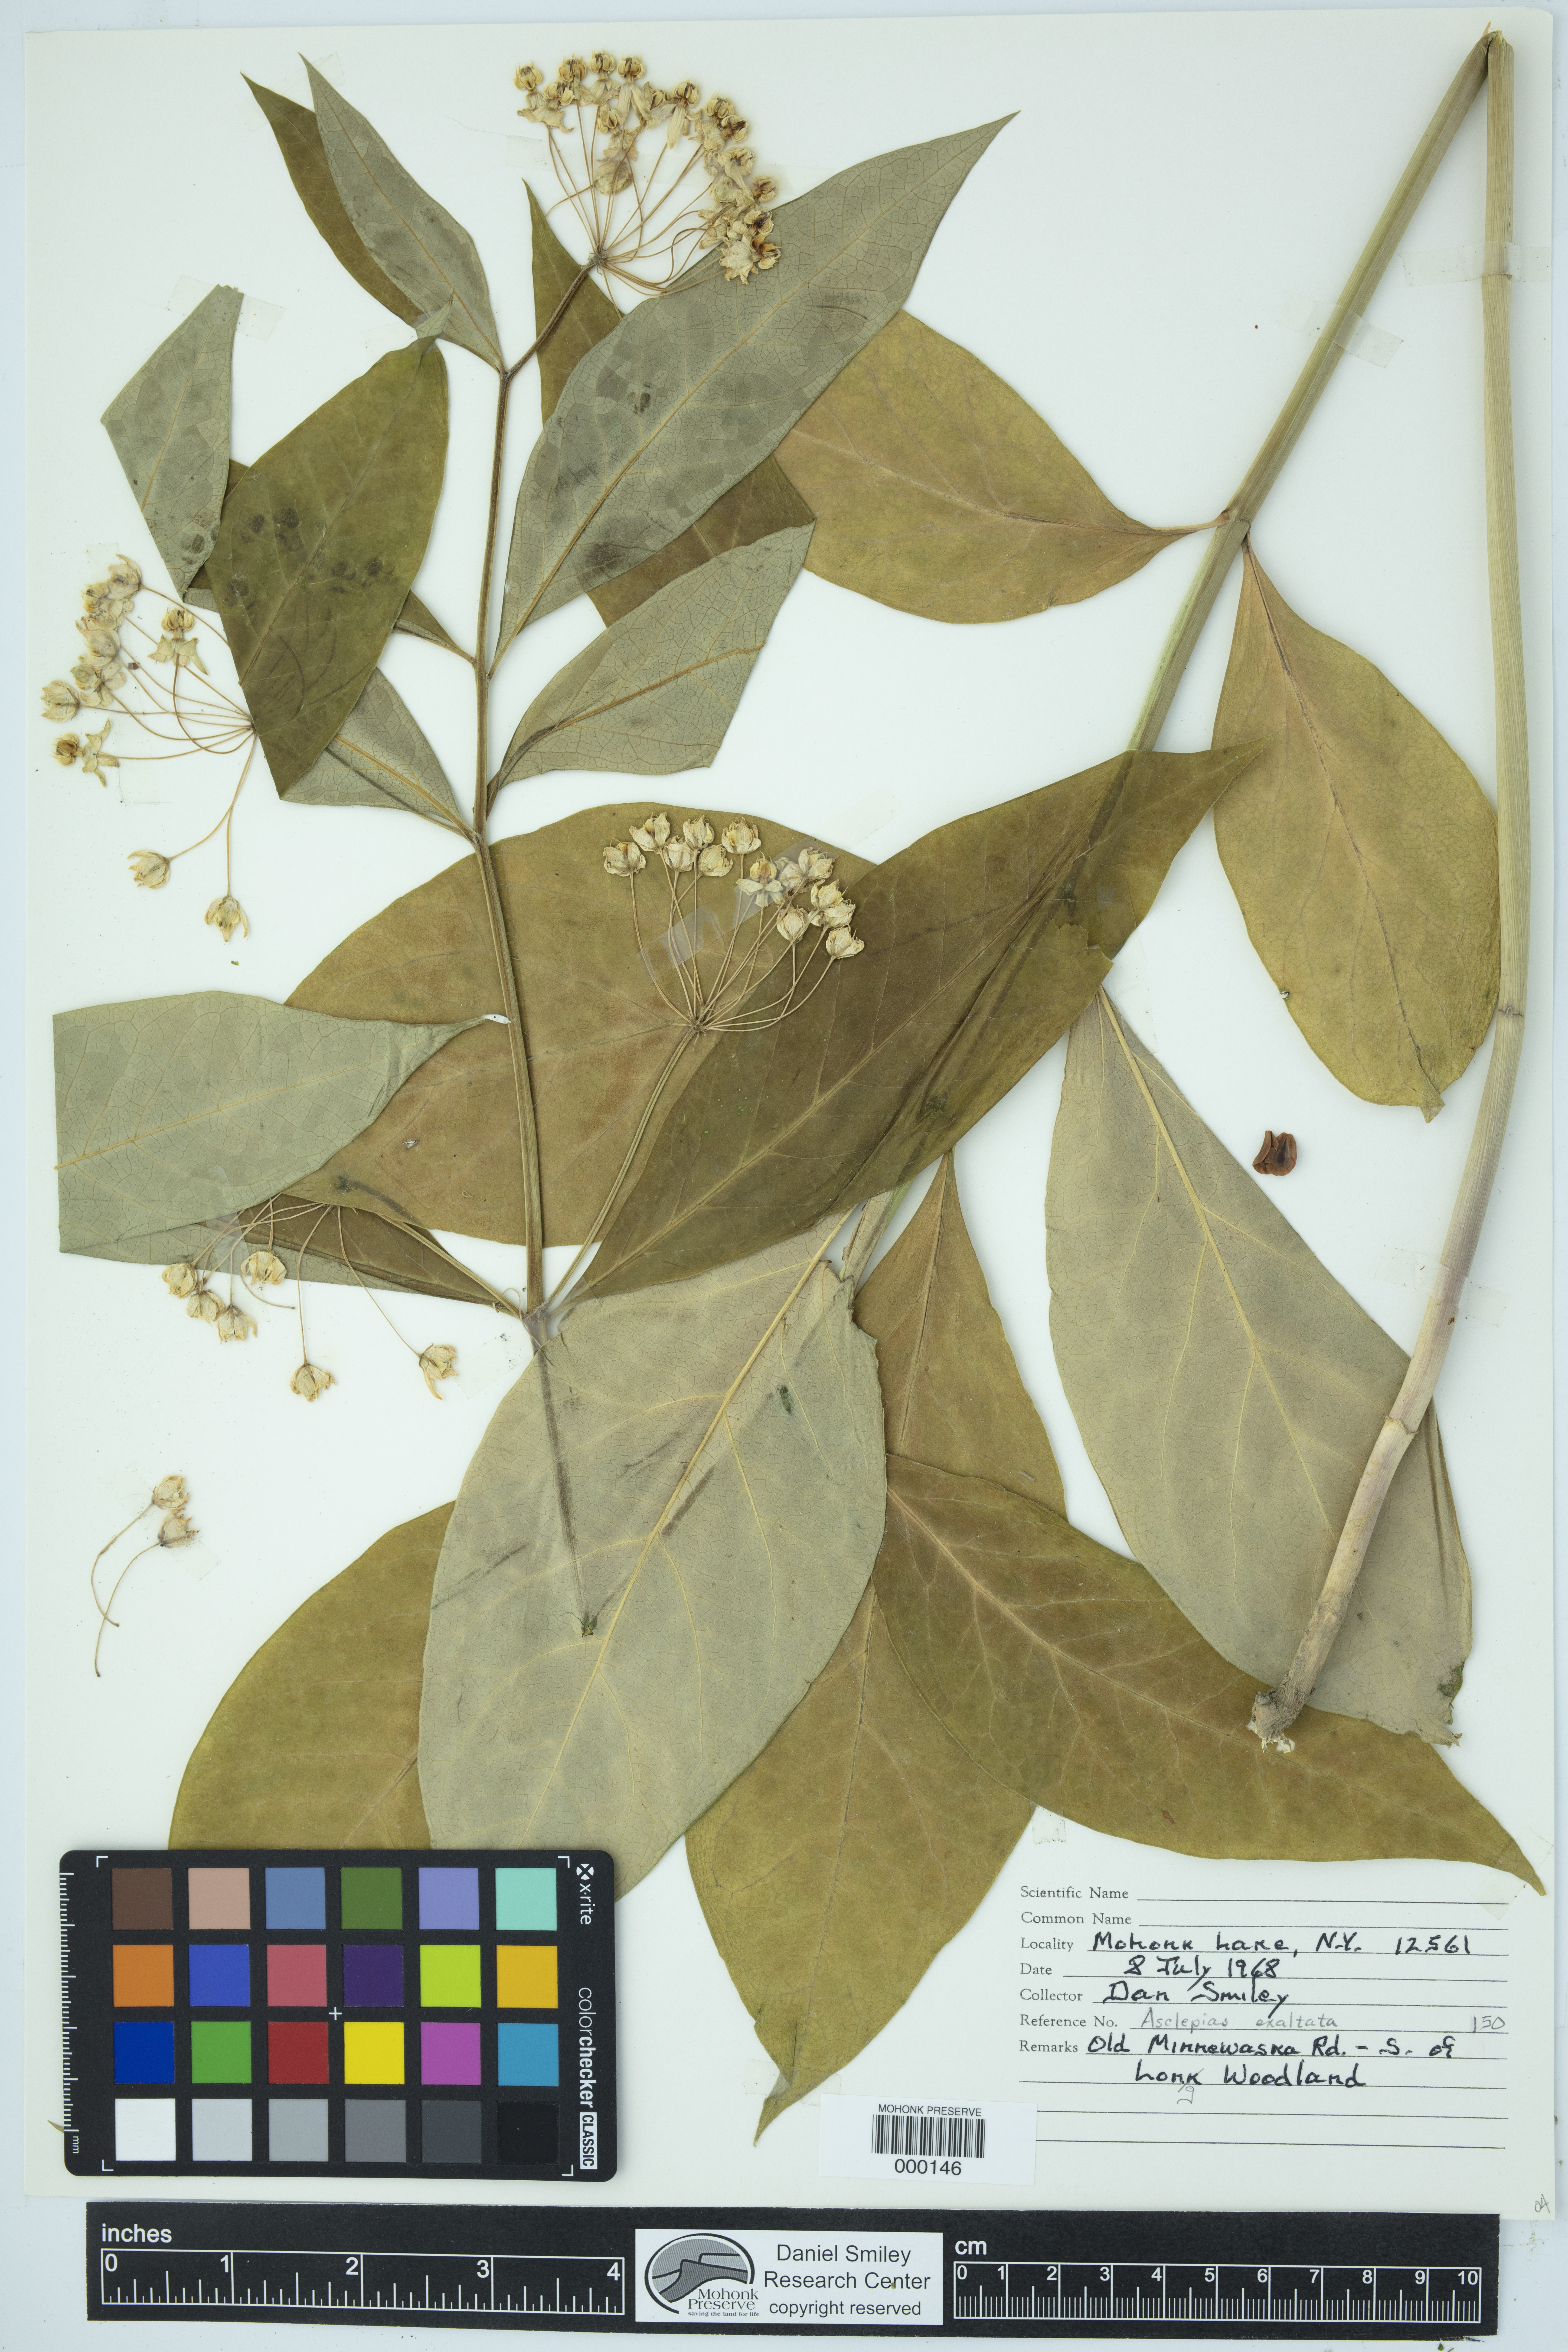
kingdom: Plantae
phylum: Tracheophyta
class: Magnoliopsida
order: Gentianales
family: Apocynaceae
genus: Asclepias
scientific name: Asclepias exaltata
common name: Poke milkweed
